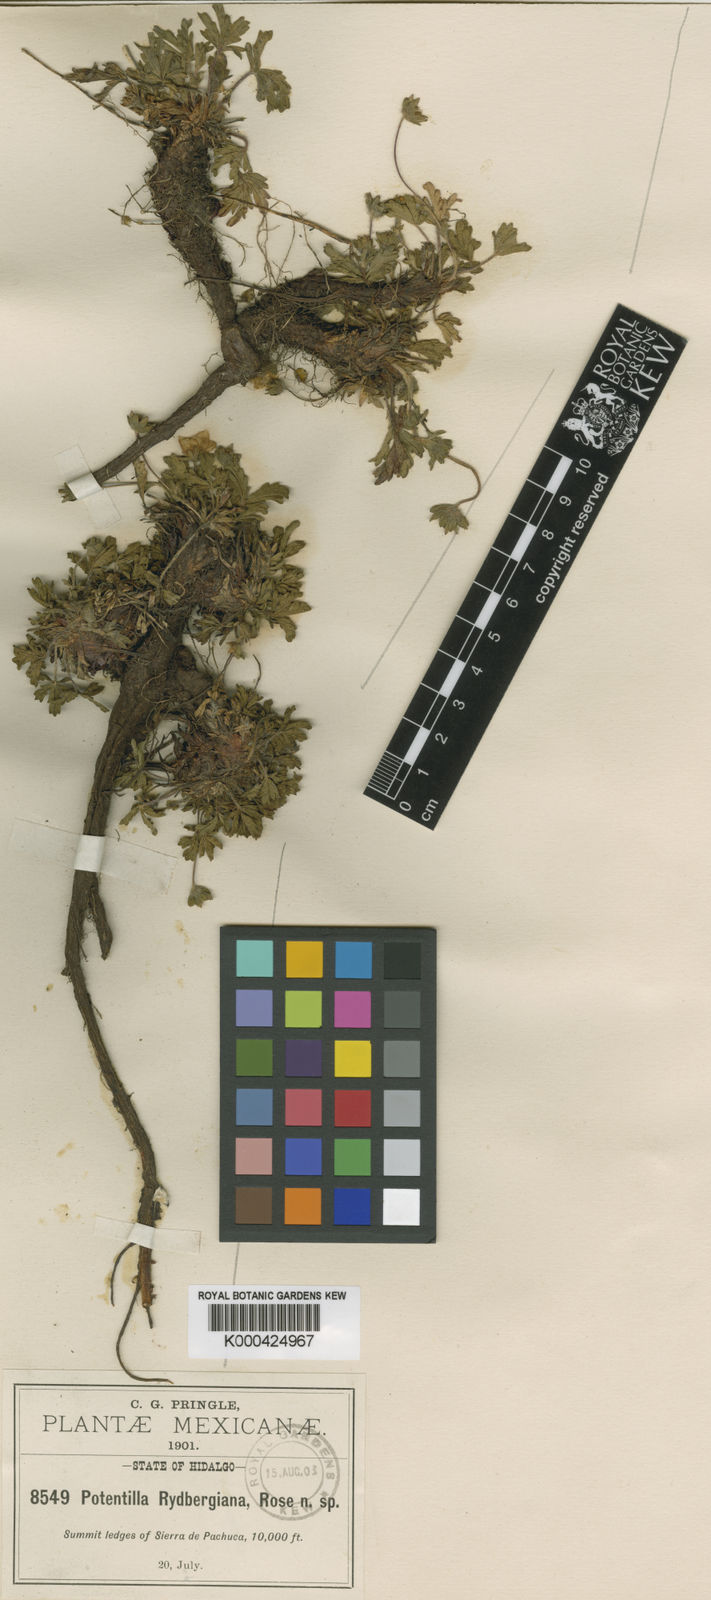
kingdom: Plantae
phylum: Tracheophyta
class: Magnoliopsida
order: Rosales
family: Rosaceae
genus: Potentilla
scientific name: Potentilla ranunculoides
